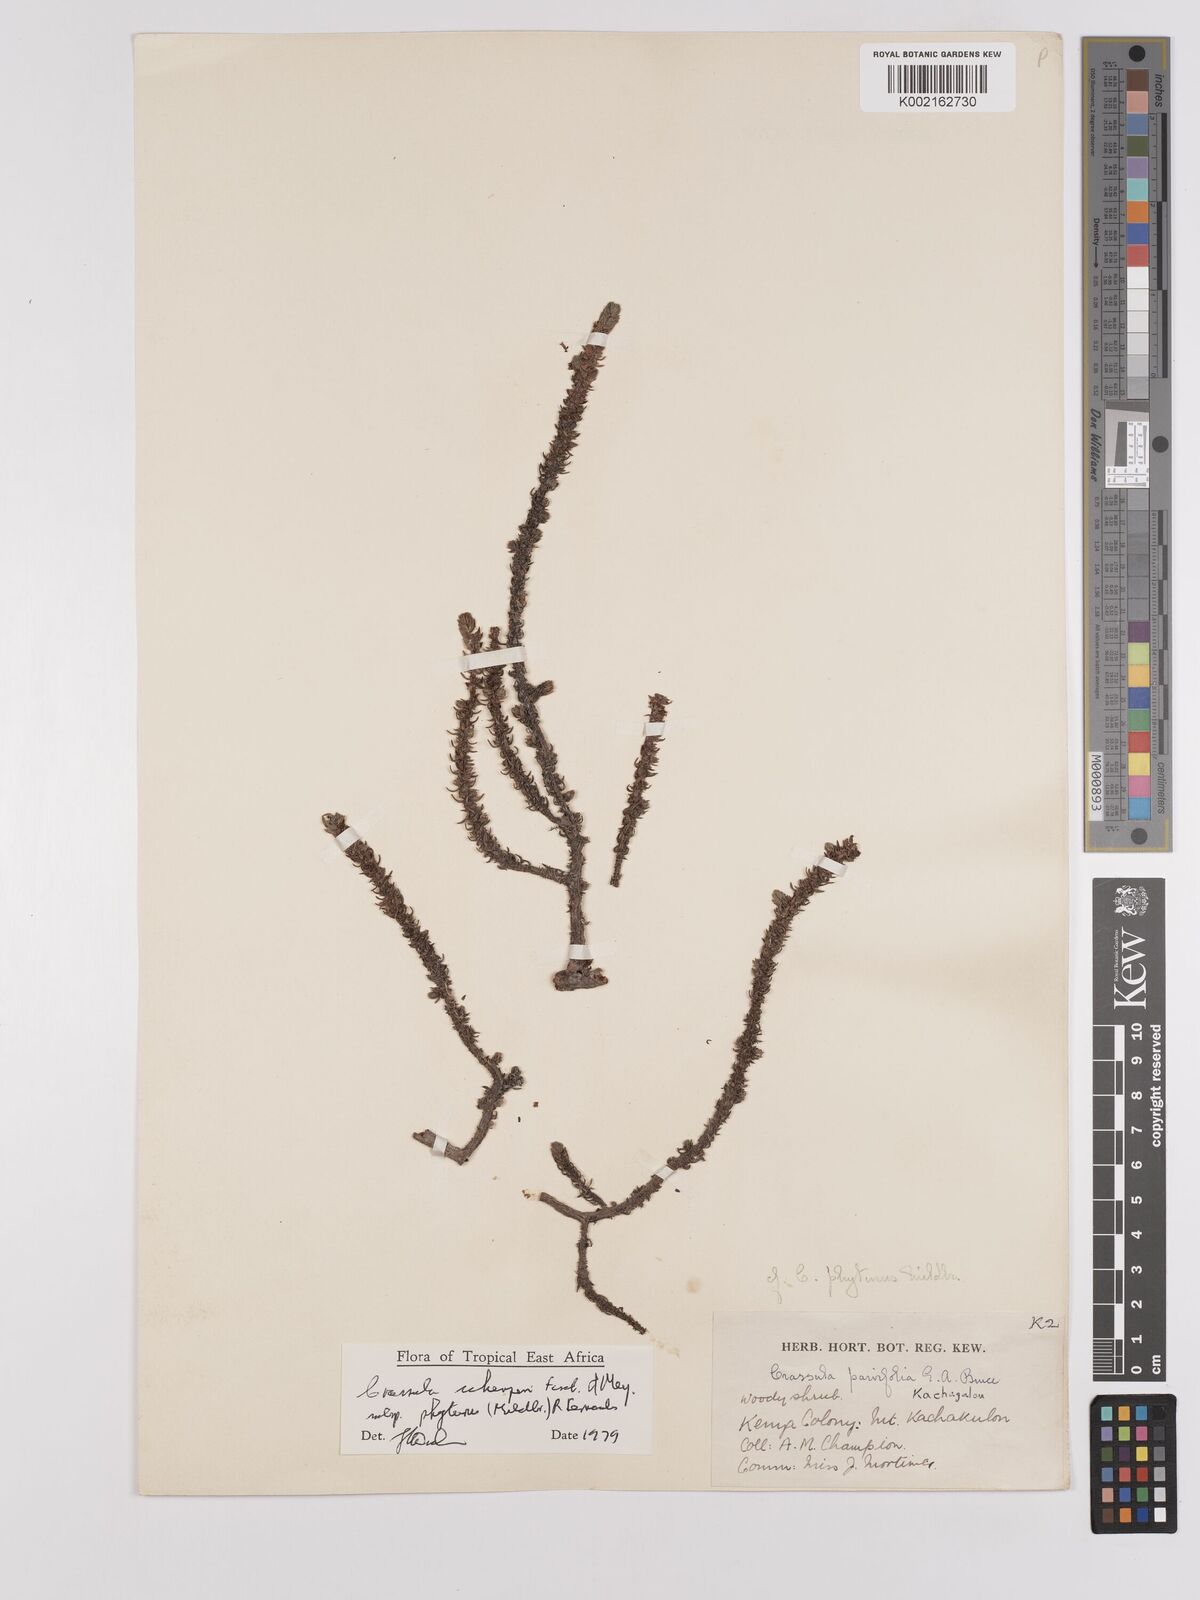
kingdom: Plantae
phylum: Tracheophyta
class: Magnoliopsida
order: Saxifragales
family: Crassulaceae
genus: Crassula
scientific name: Crassula schimperi
